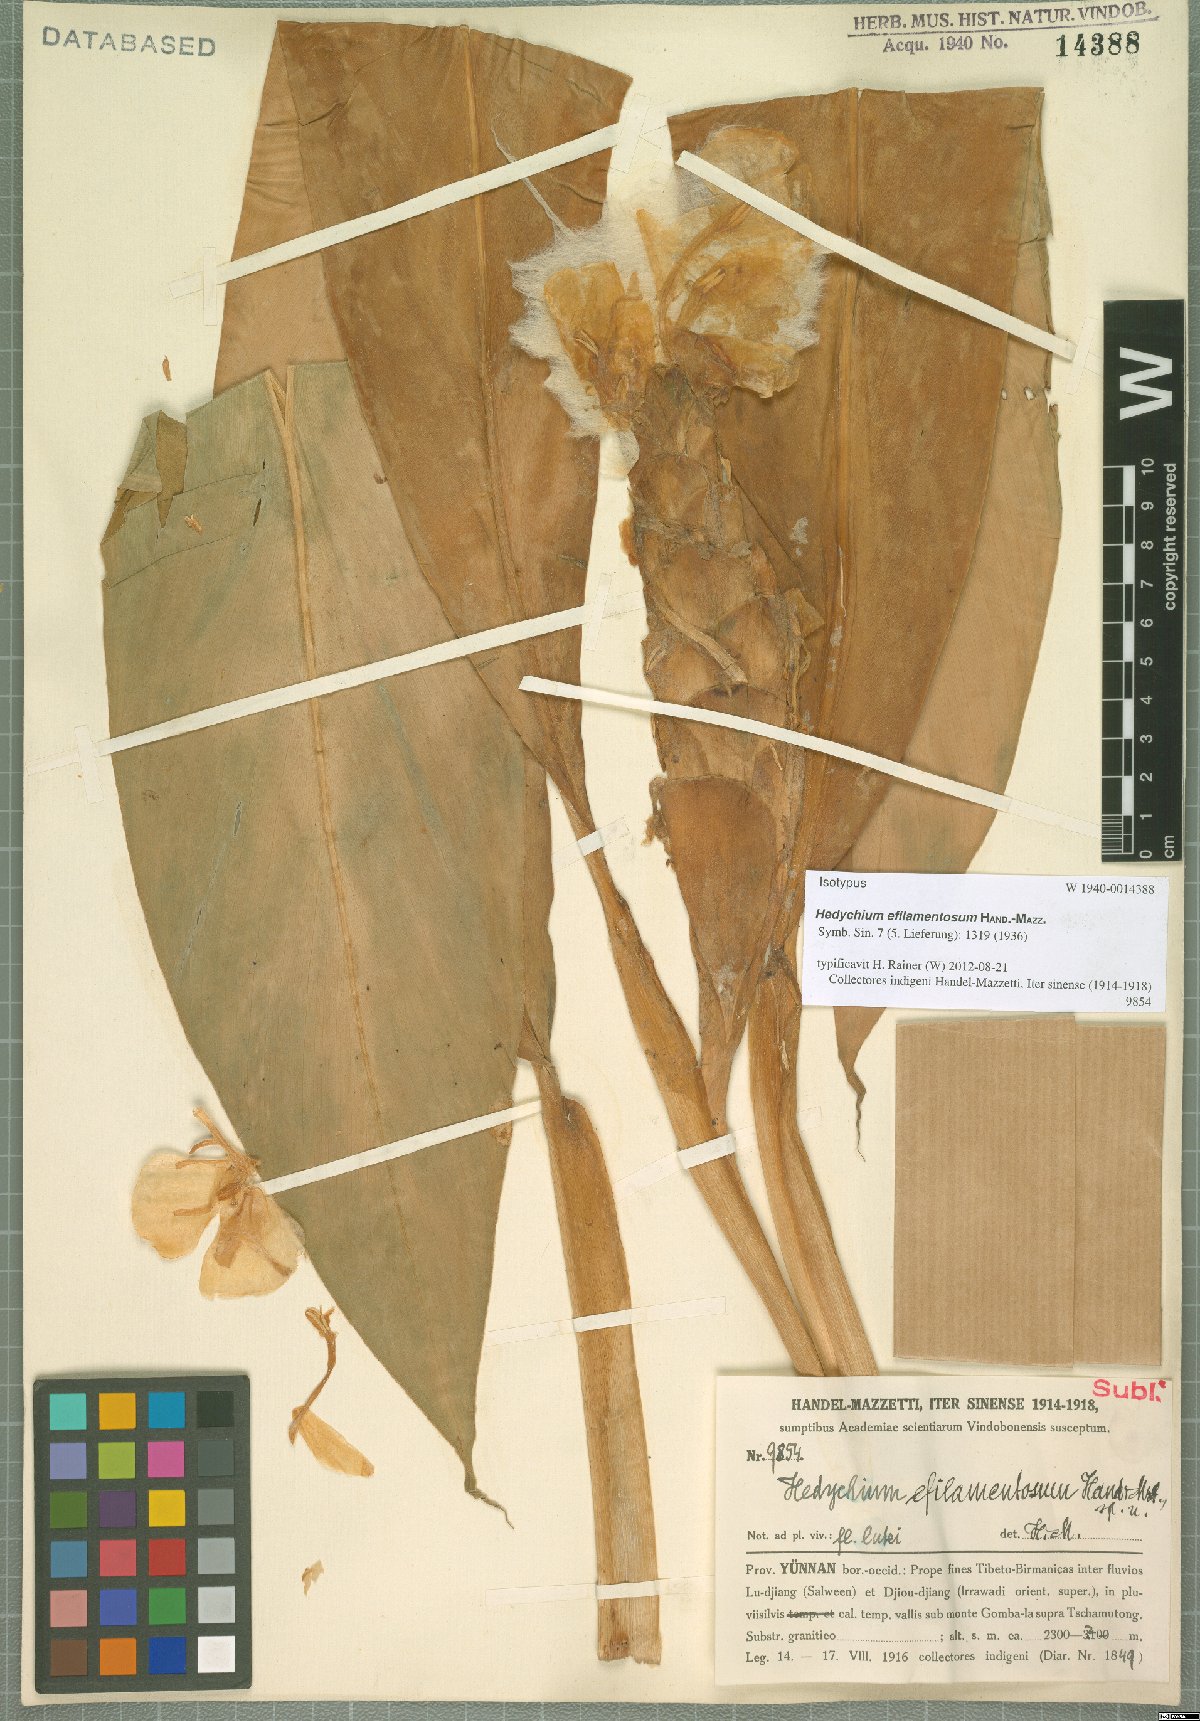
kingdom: Plantae
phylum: Tracheophyta
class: Liliopsida
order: Zingiberales
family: Zingiberaceae
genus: Hedychium
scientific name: Hedychium efilamentosum
